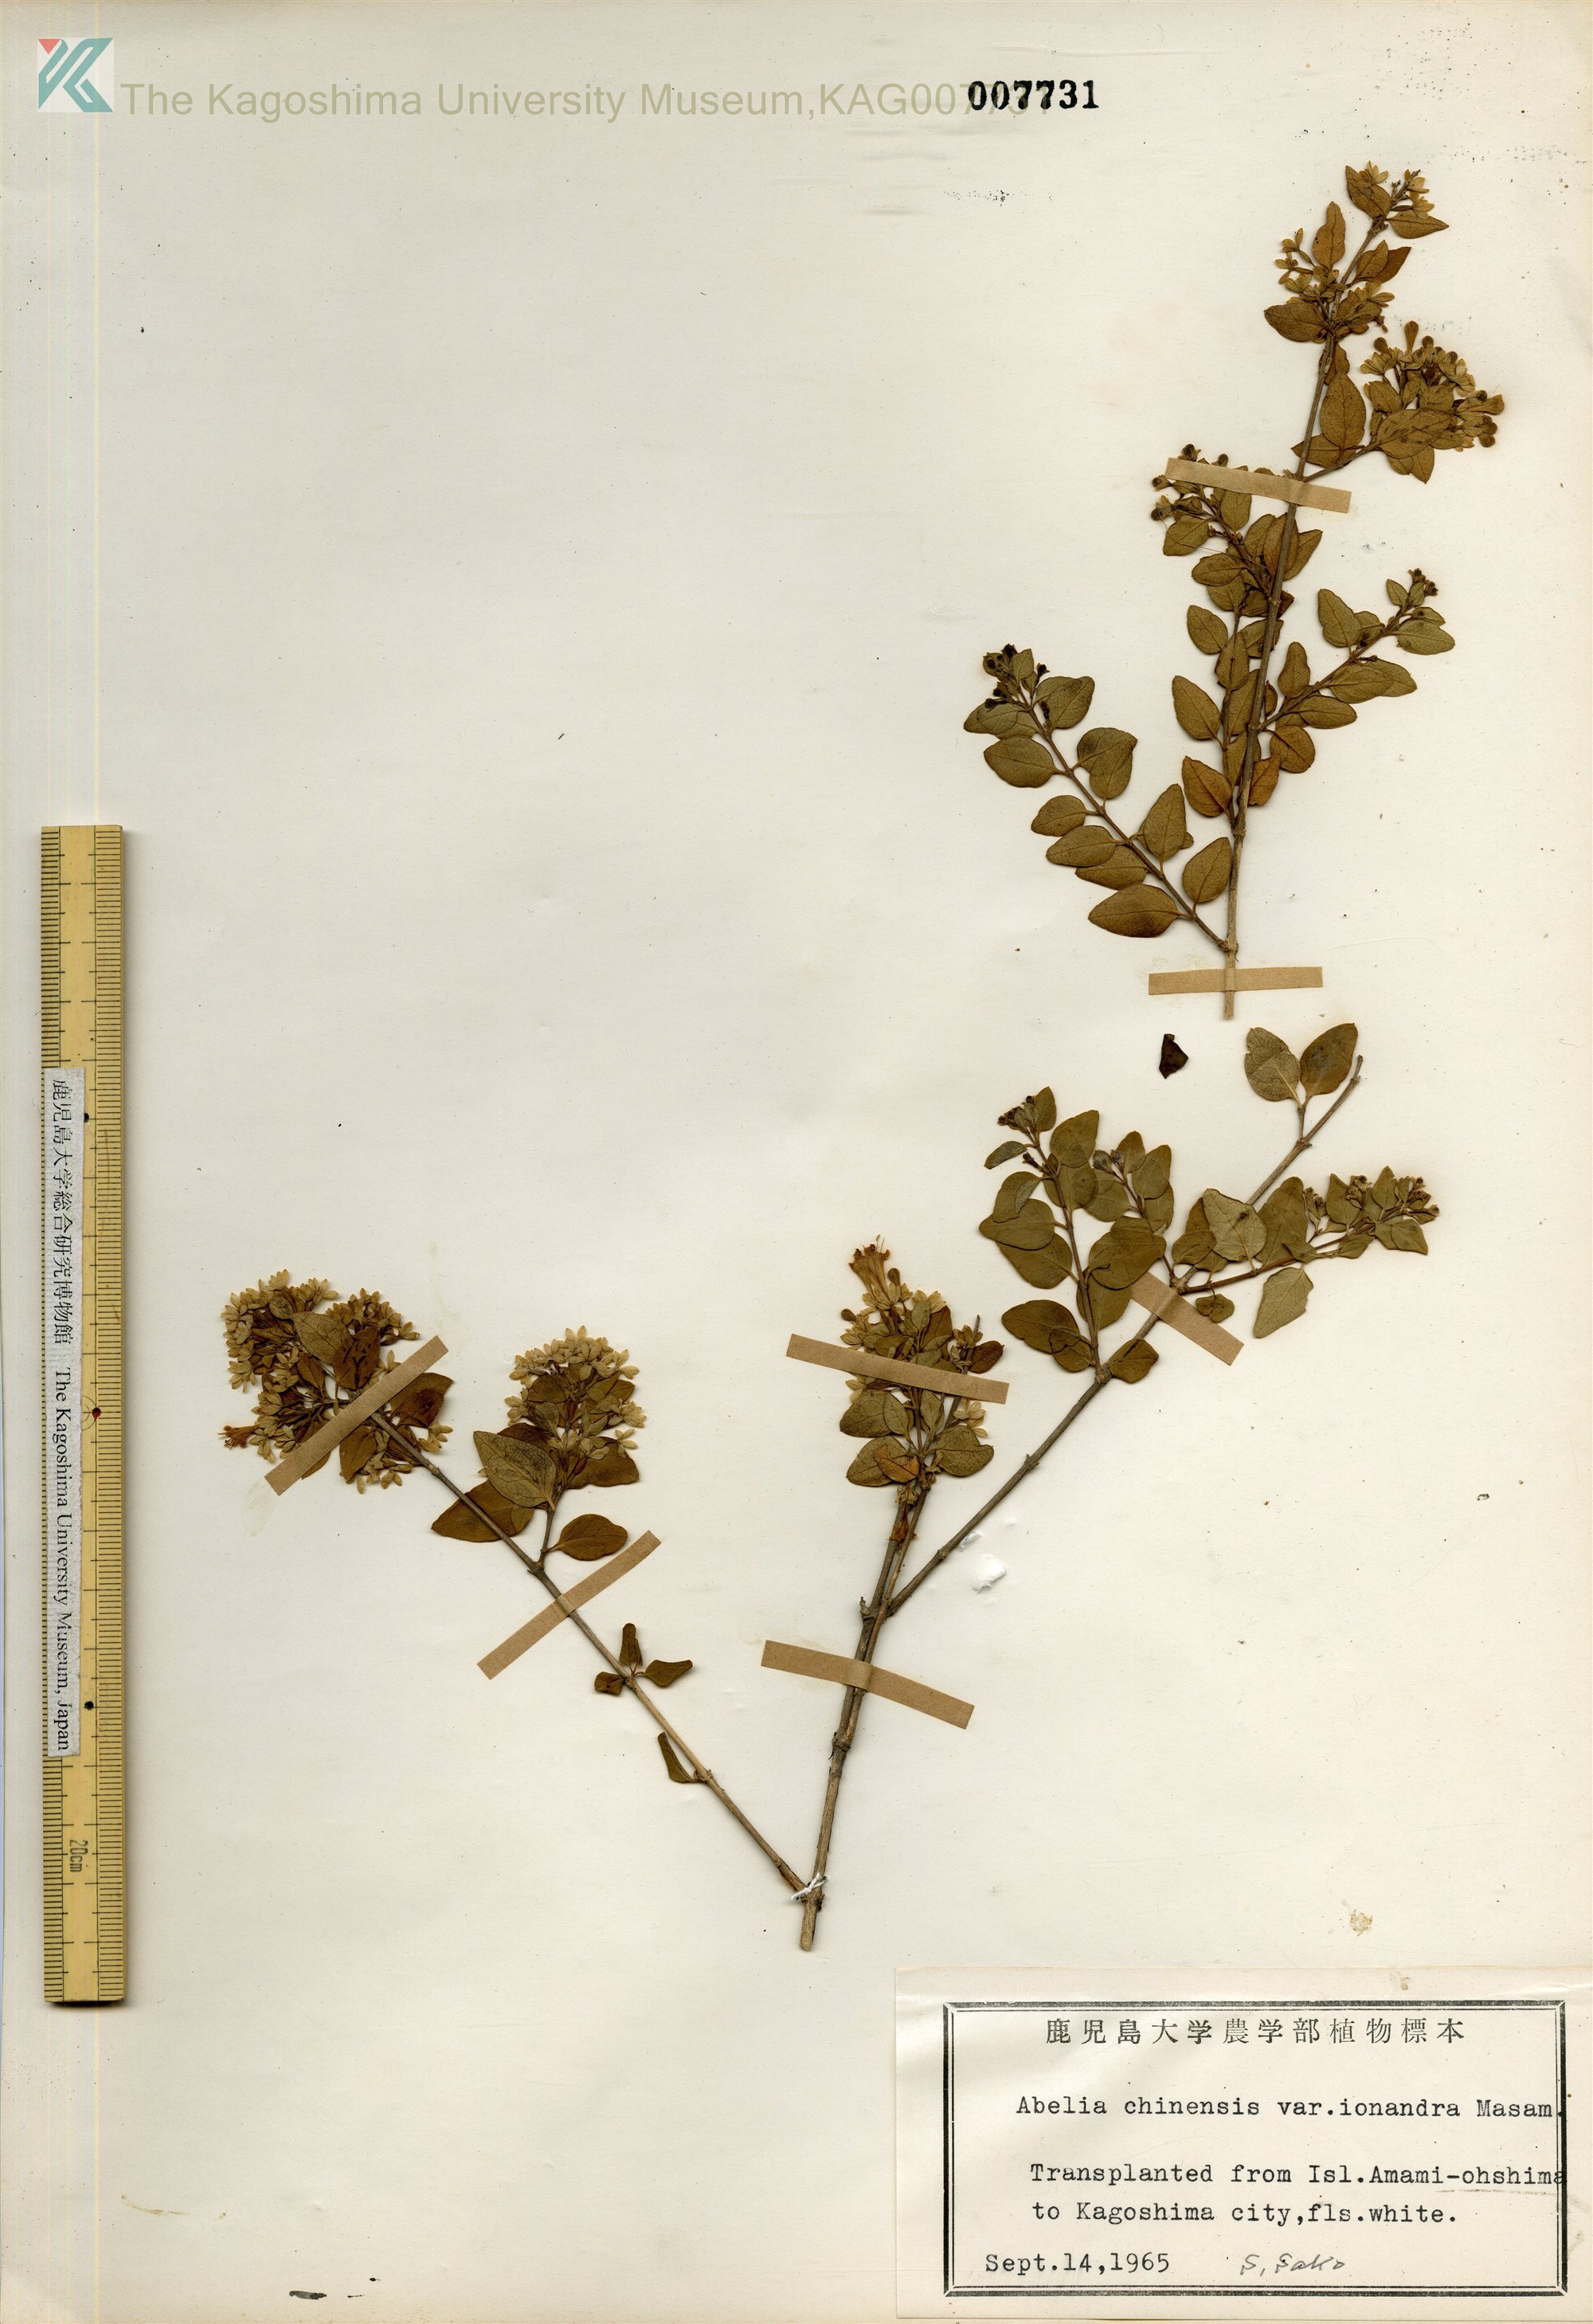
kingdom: Plantae
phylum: Tracheophyta
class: Magnoliopsida
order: Dipsacales
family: Caprifoliaceae
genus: Abelia
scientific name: Abelia chinensis
